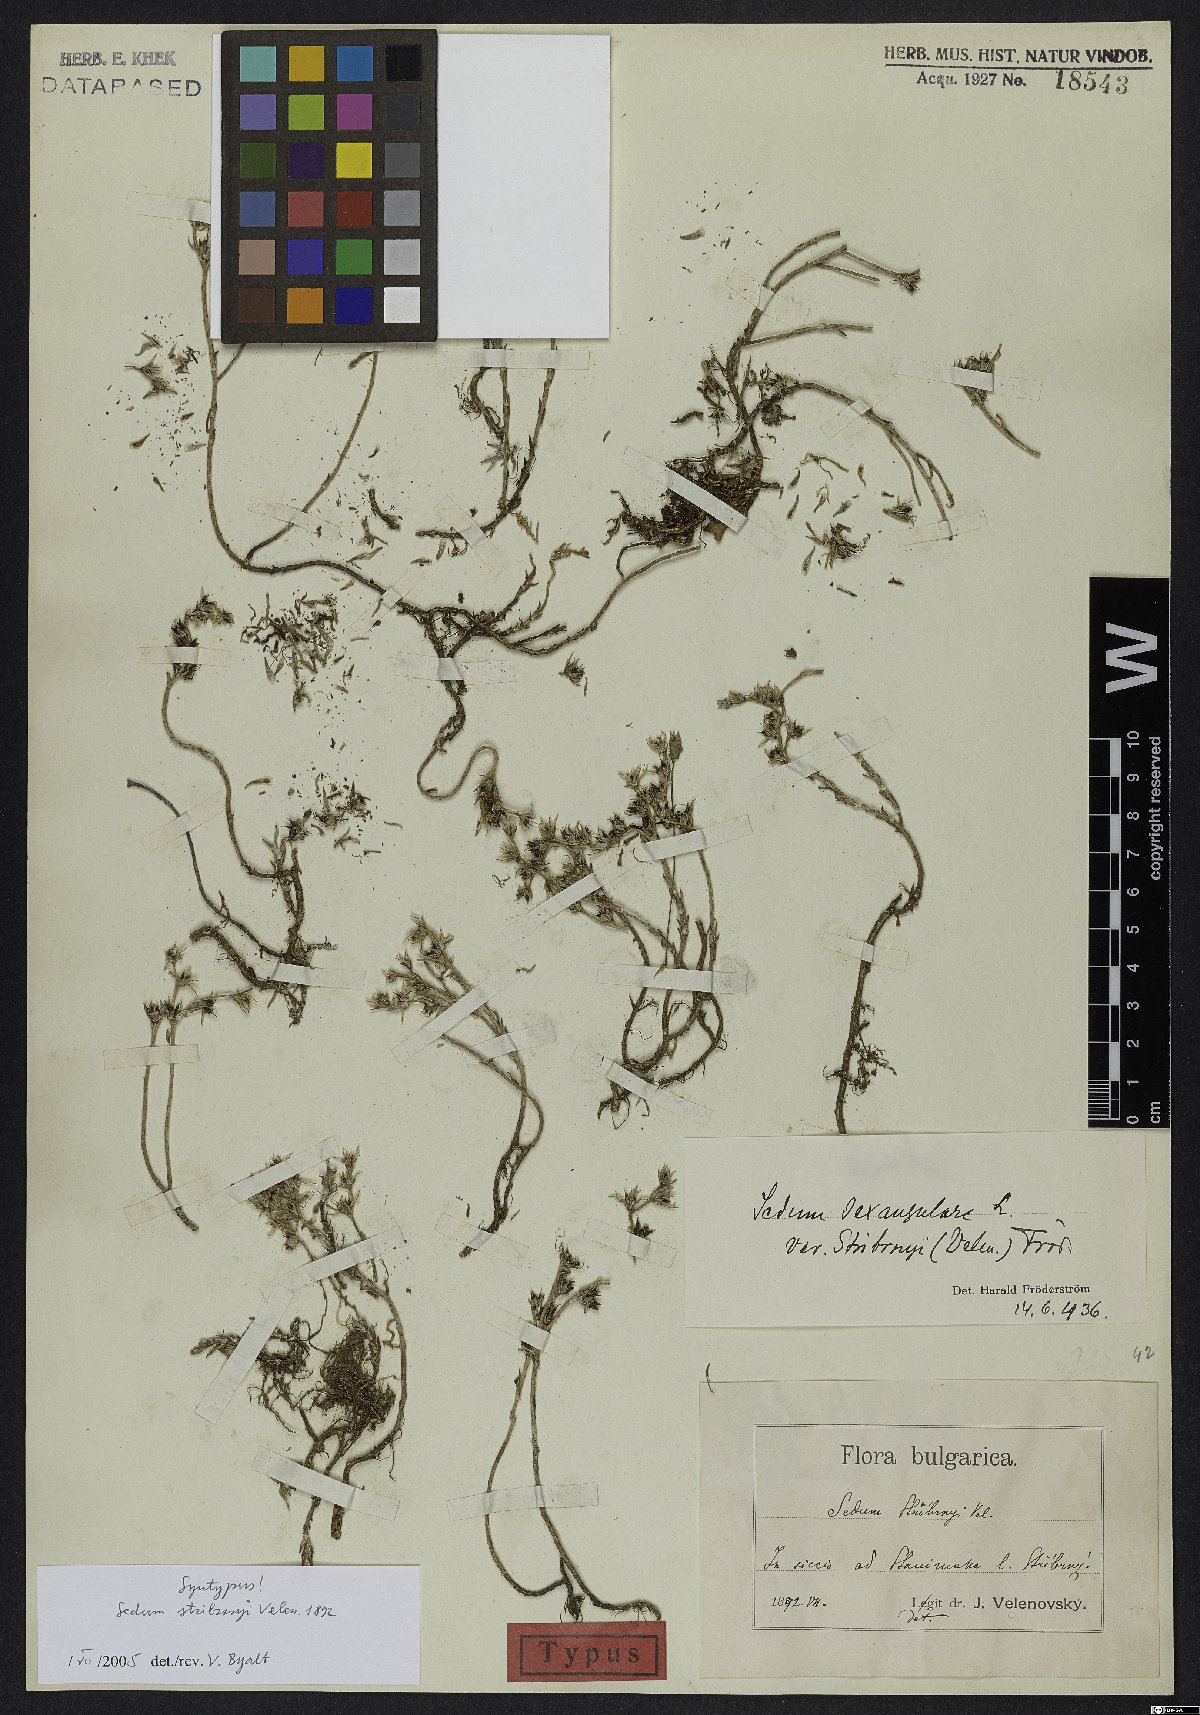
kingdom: Plantae
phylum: Tracheophyta
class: Magnoliopsida
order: Saxifragales
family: Crassulaceae
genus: Sedum
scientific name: Sedum urvillei
